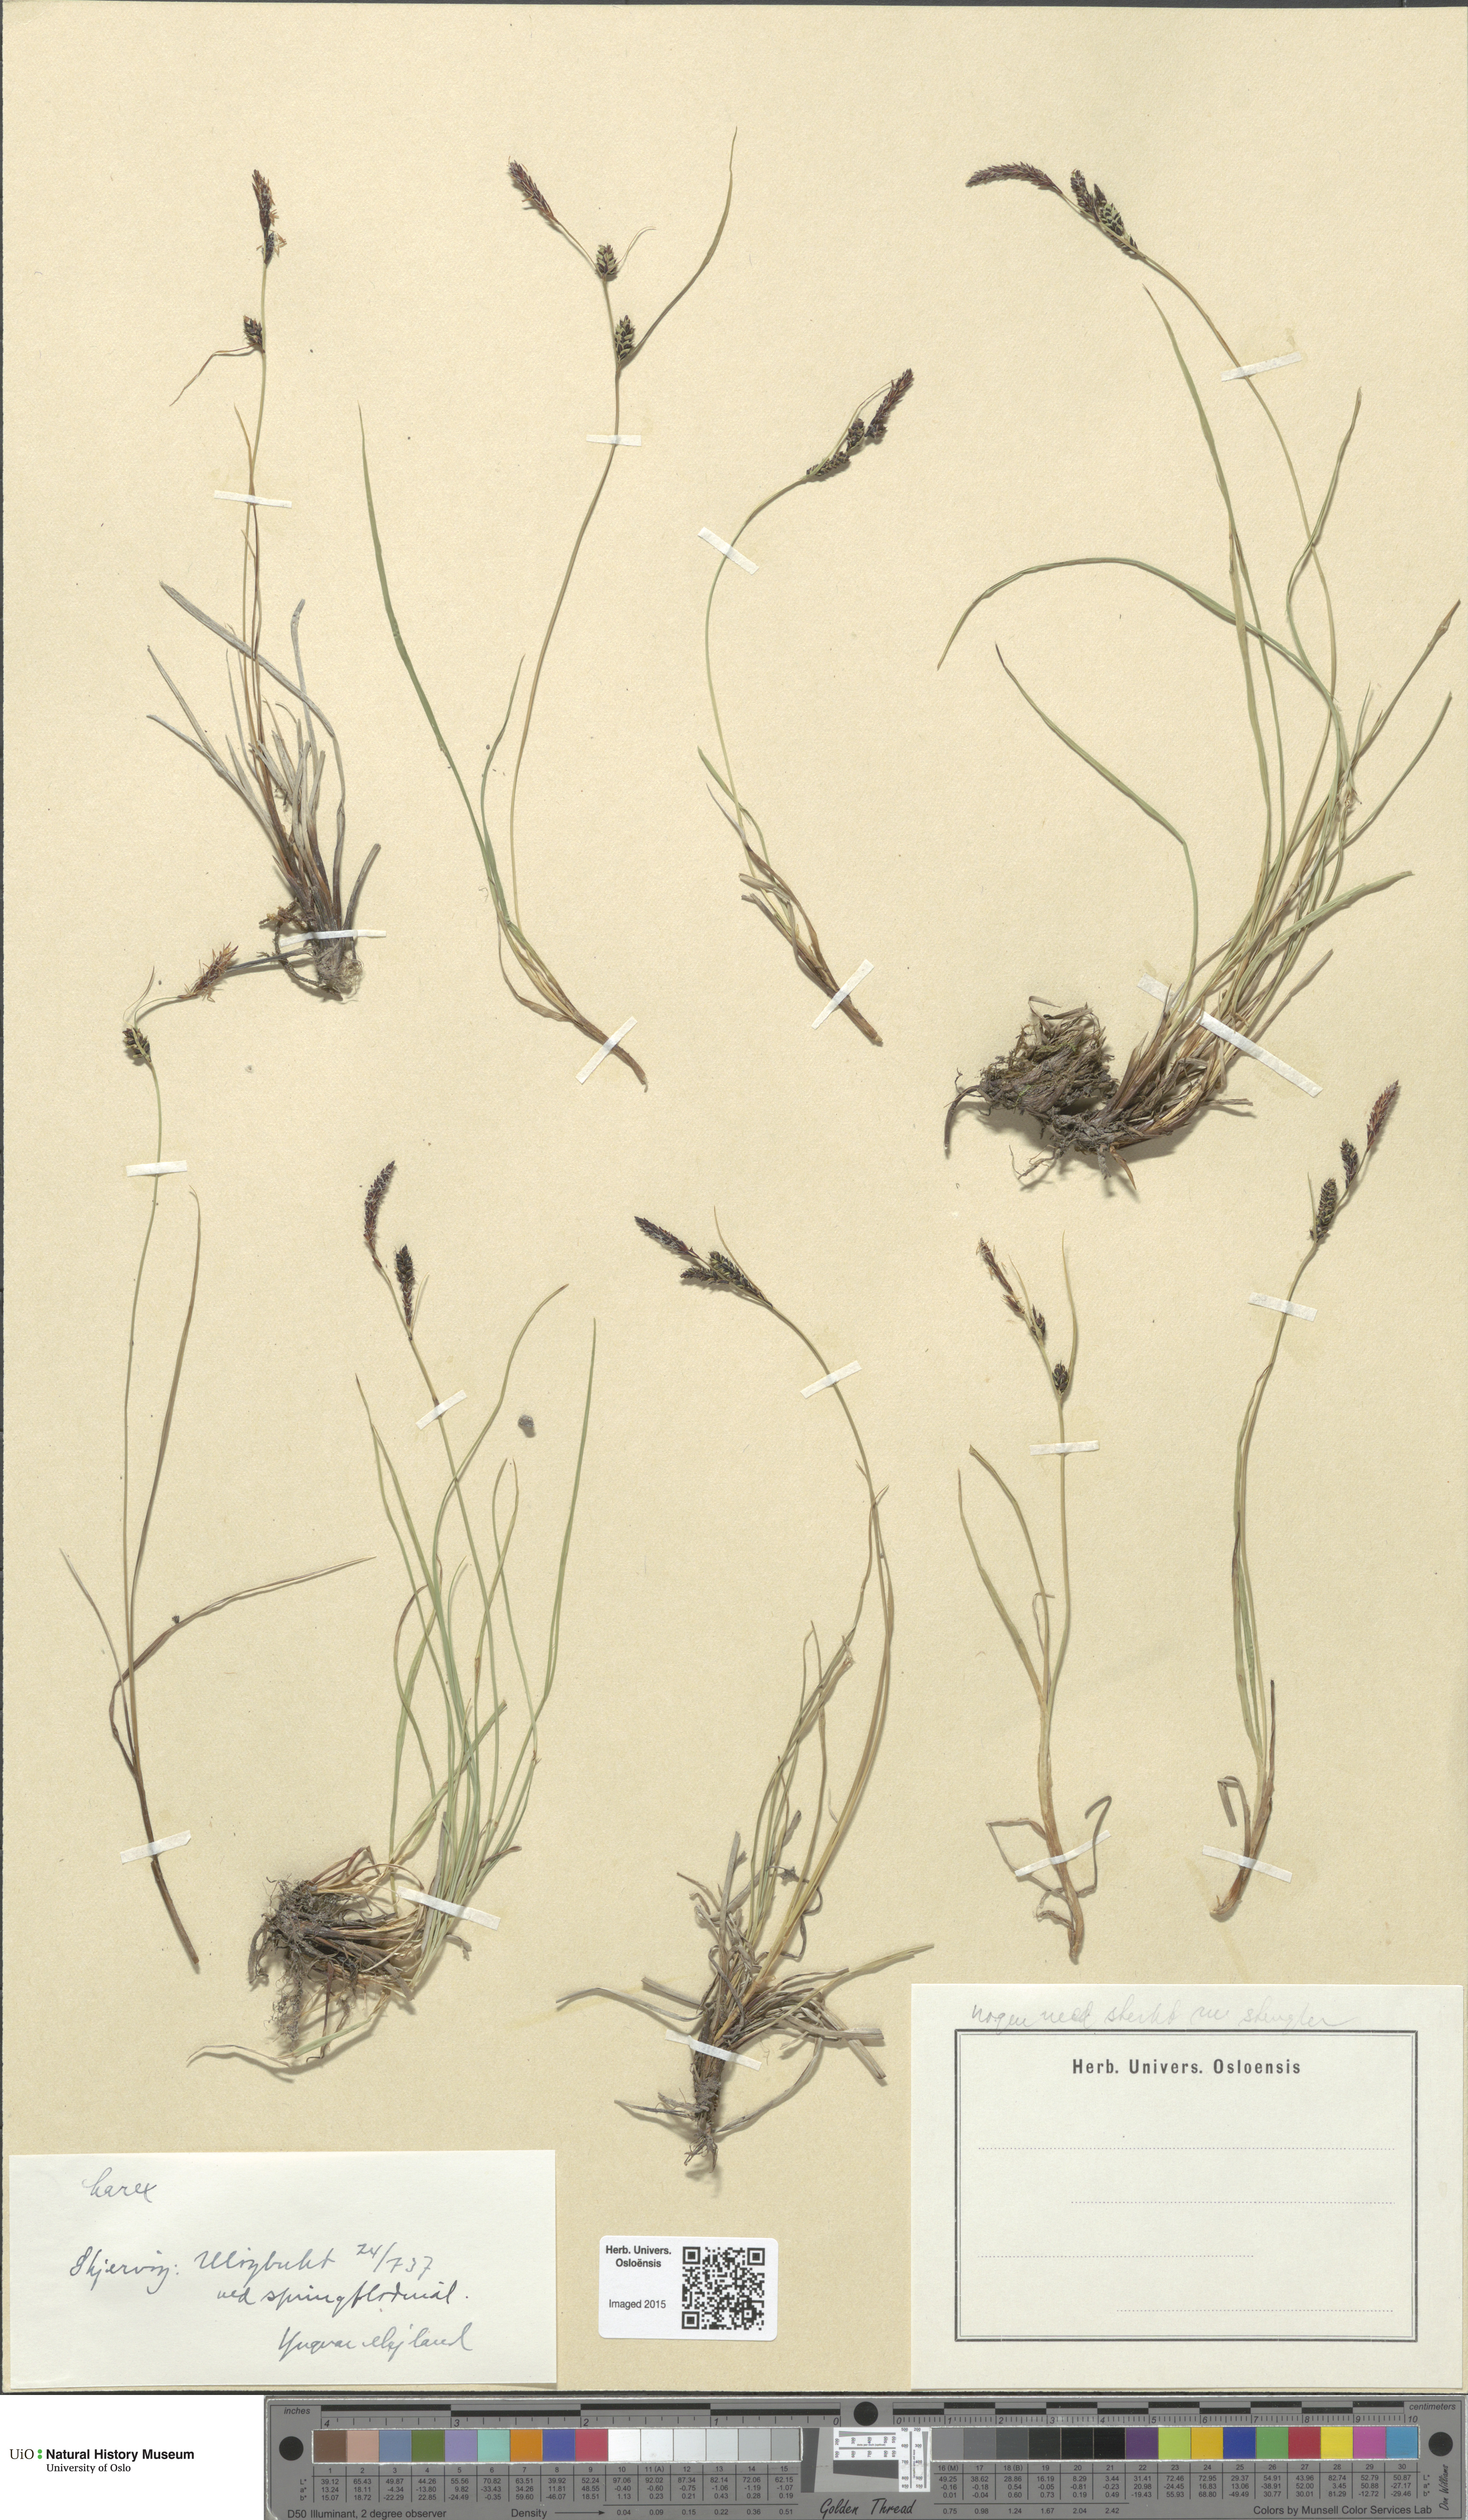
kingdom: Plantae
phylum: Tracheophyta
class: Liliopsida
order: Poales
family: Cyperaceae
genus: Carex
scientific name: Carex
